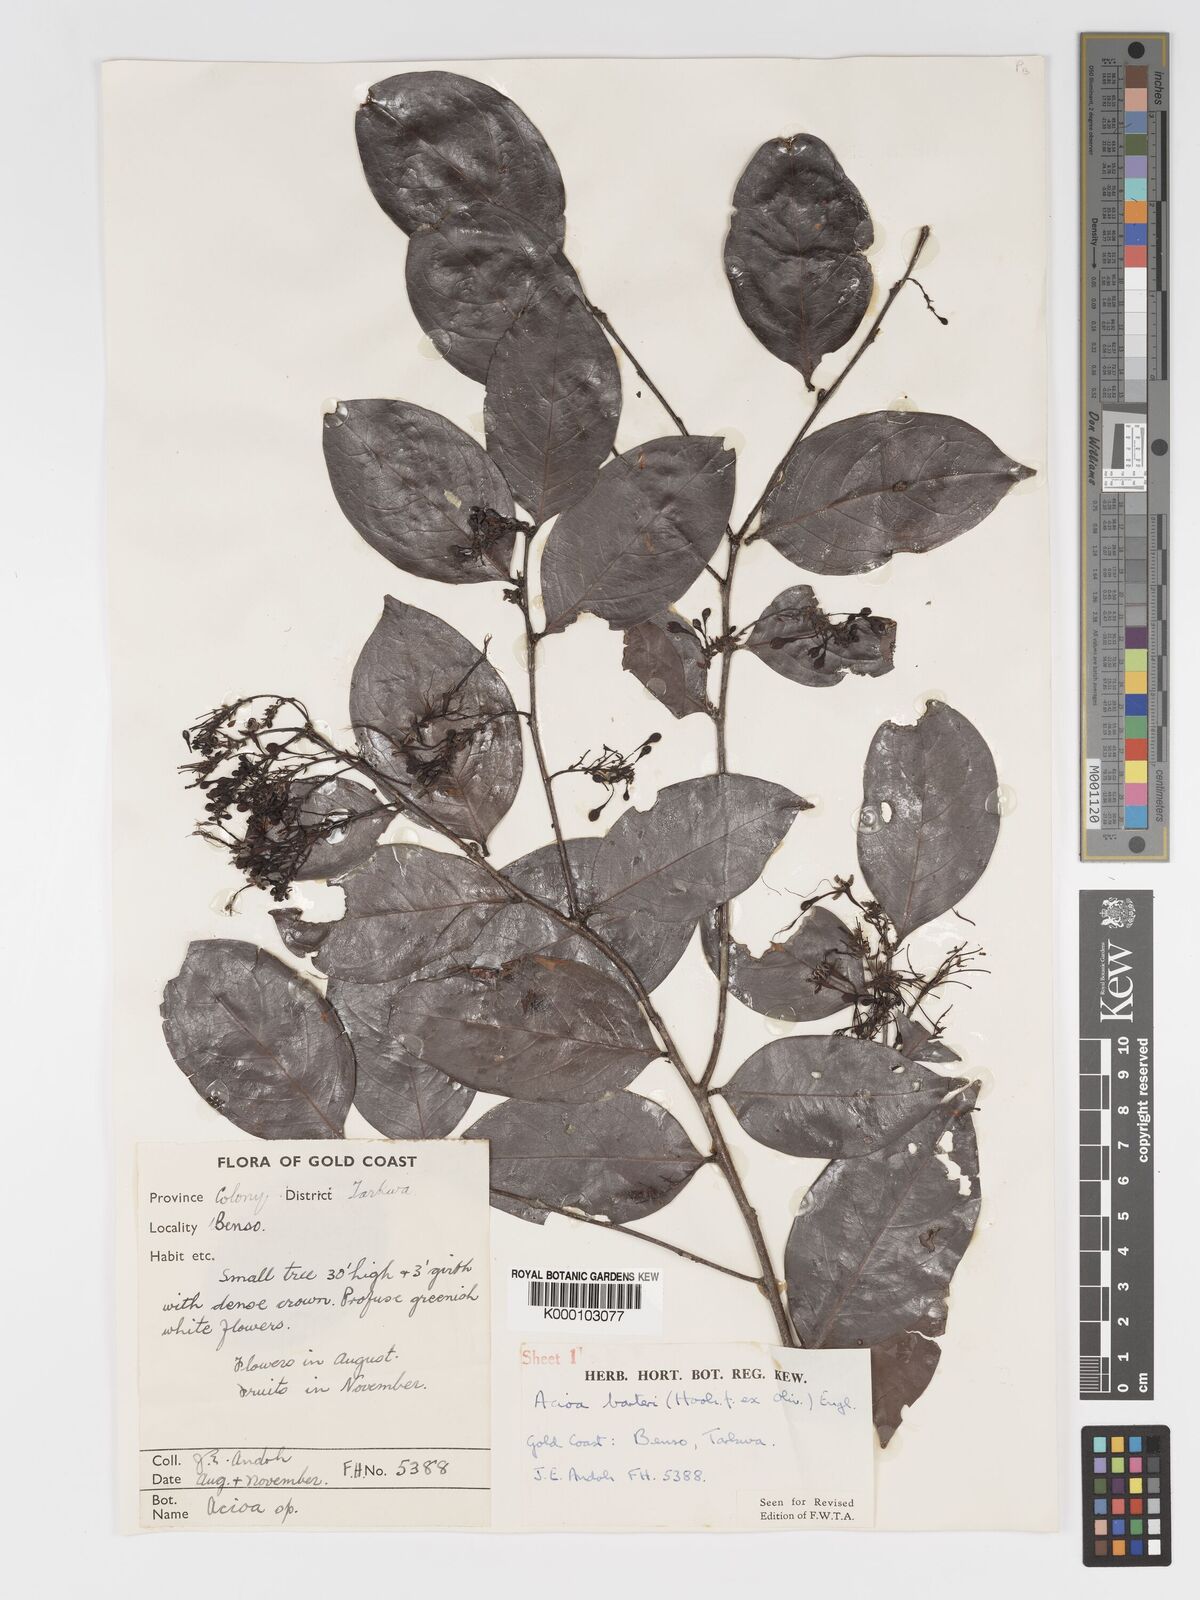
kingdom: Plantae
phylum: Tracheophyta
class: Magnoliopsida
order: Malpighiales
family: Chrysobalanaceae
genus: Dactyladenia
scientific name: Dactyladenia barteri
